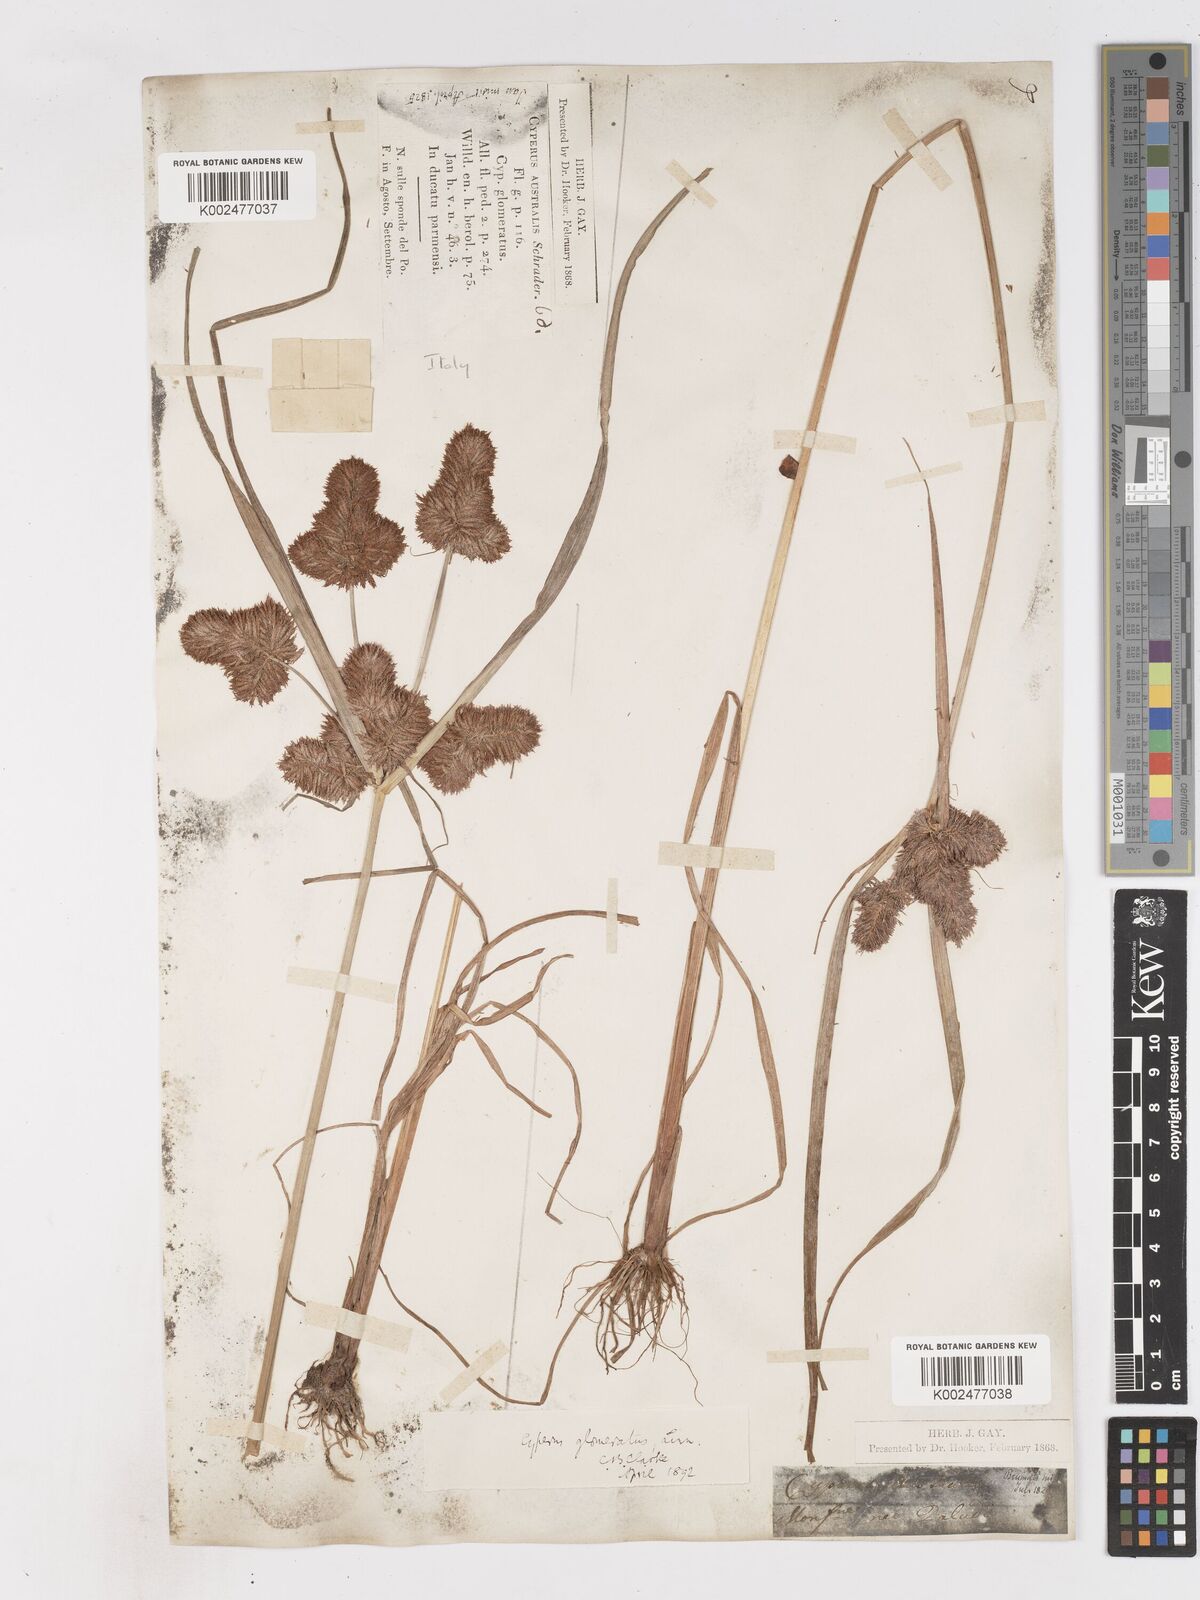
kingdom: Plantae
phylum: Tracheophyta
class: Liliopsida
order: Poales
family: Cyperaceae
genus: Cyperus
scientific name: Cyperus glomeratus
